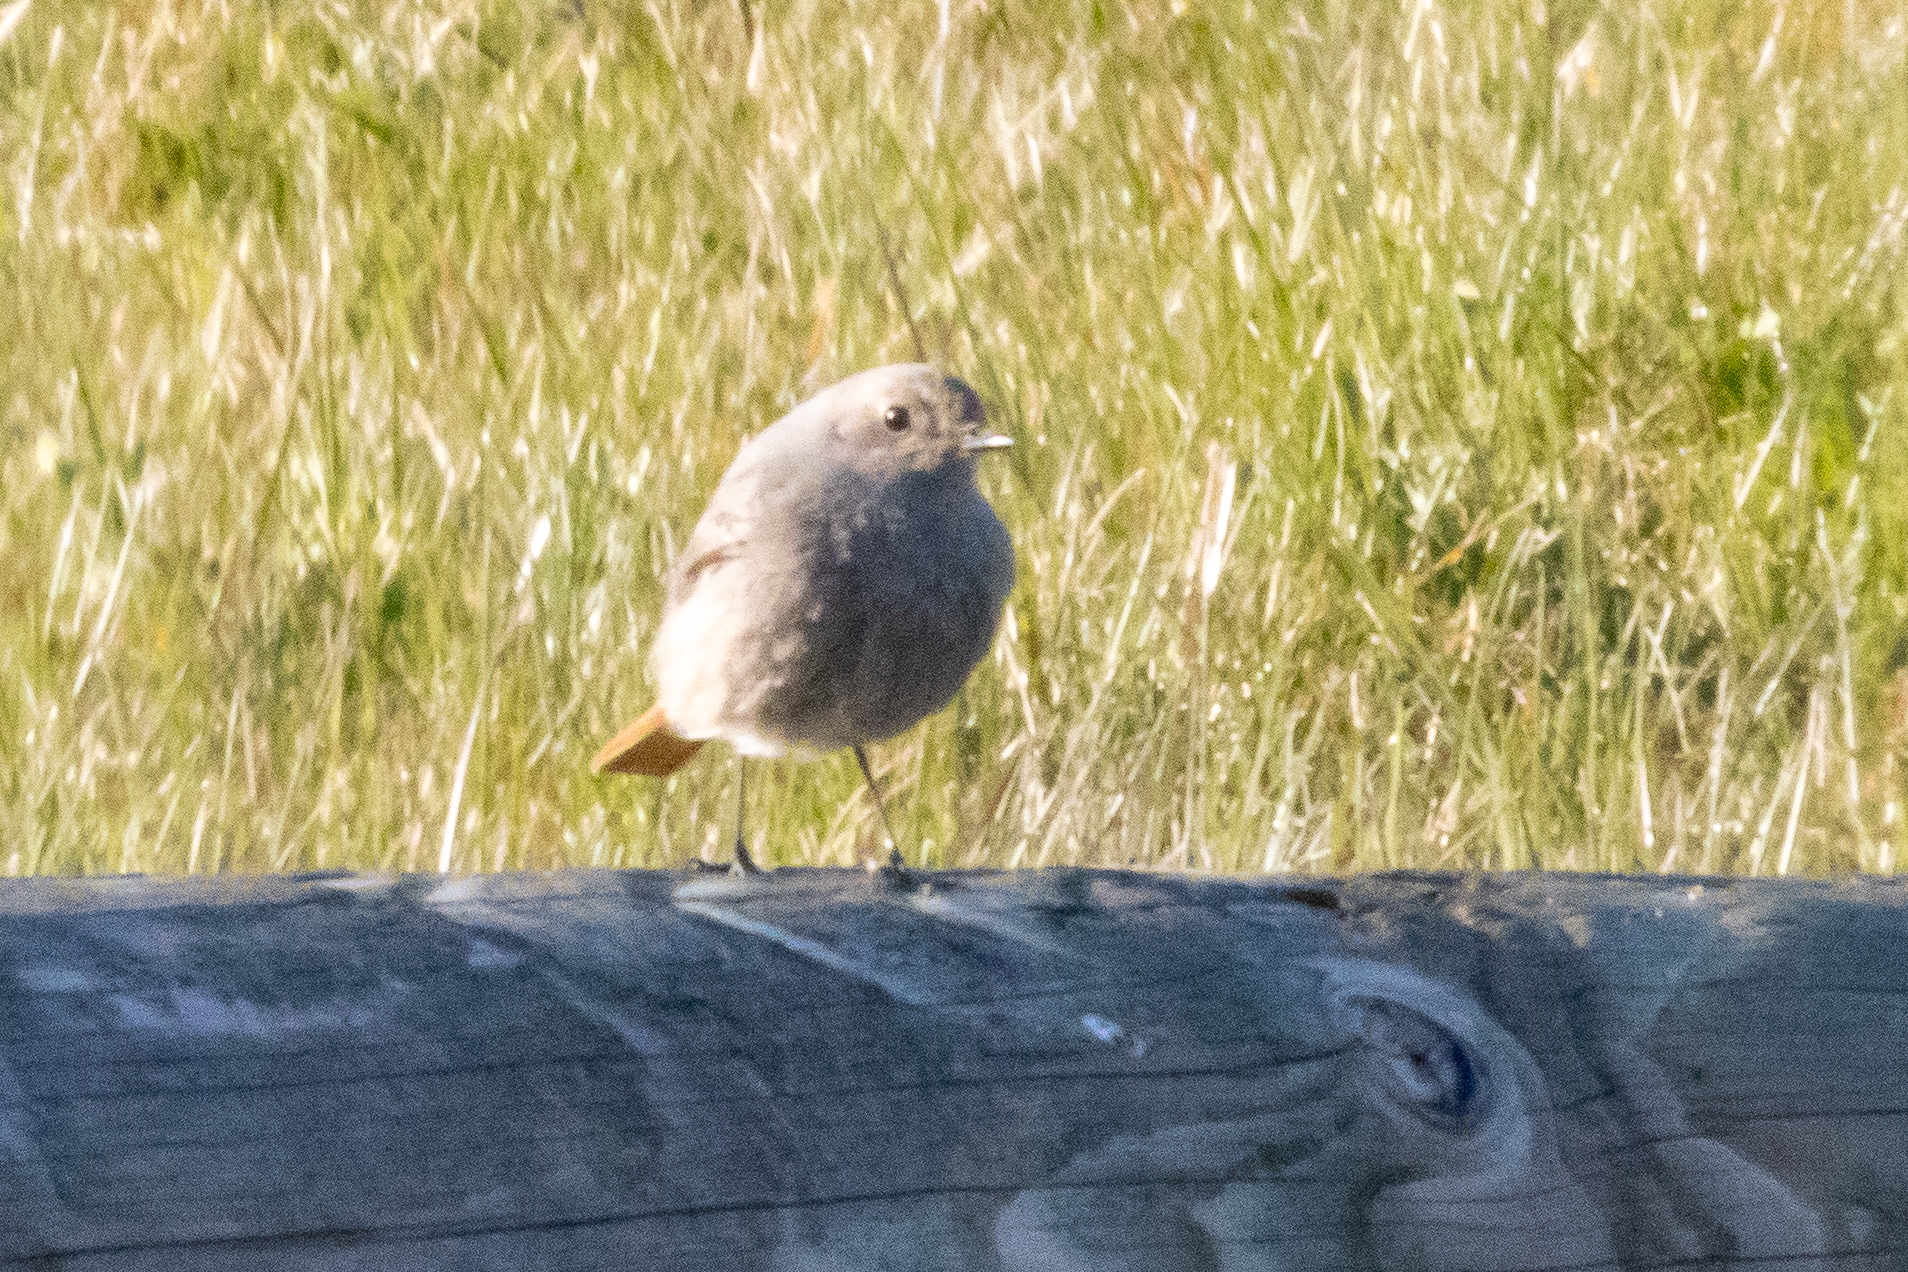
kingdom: Animalia
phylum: Chordata
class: Aves
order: Passeriformes
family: Muscicapidae
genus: Phoenicurus
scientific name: Phoenicurus ochruros
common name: Husrødstjert
